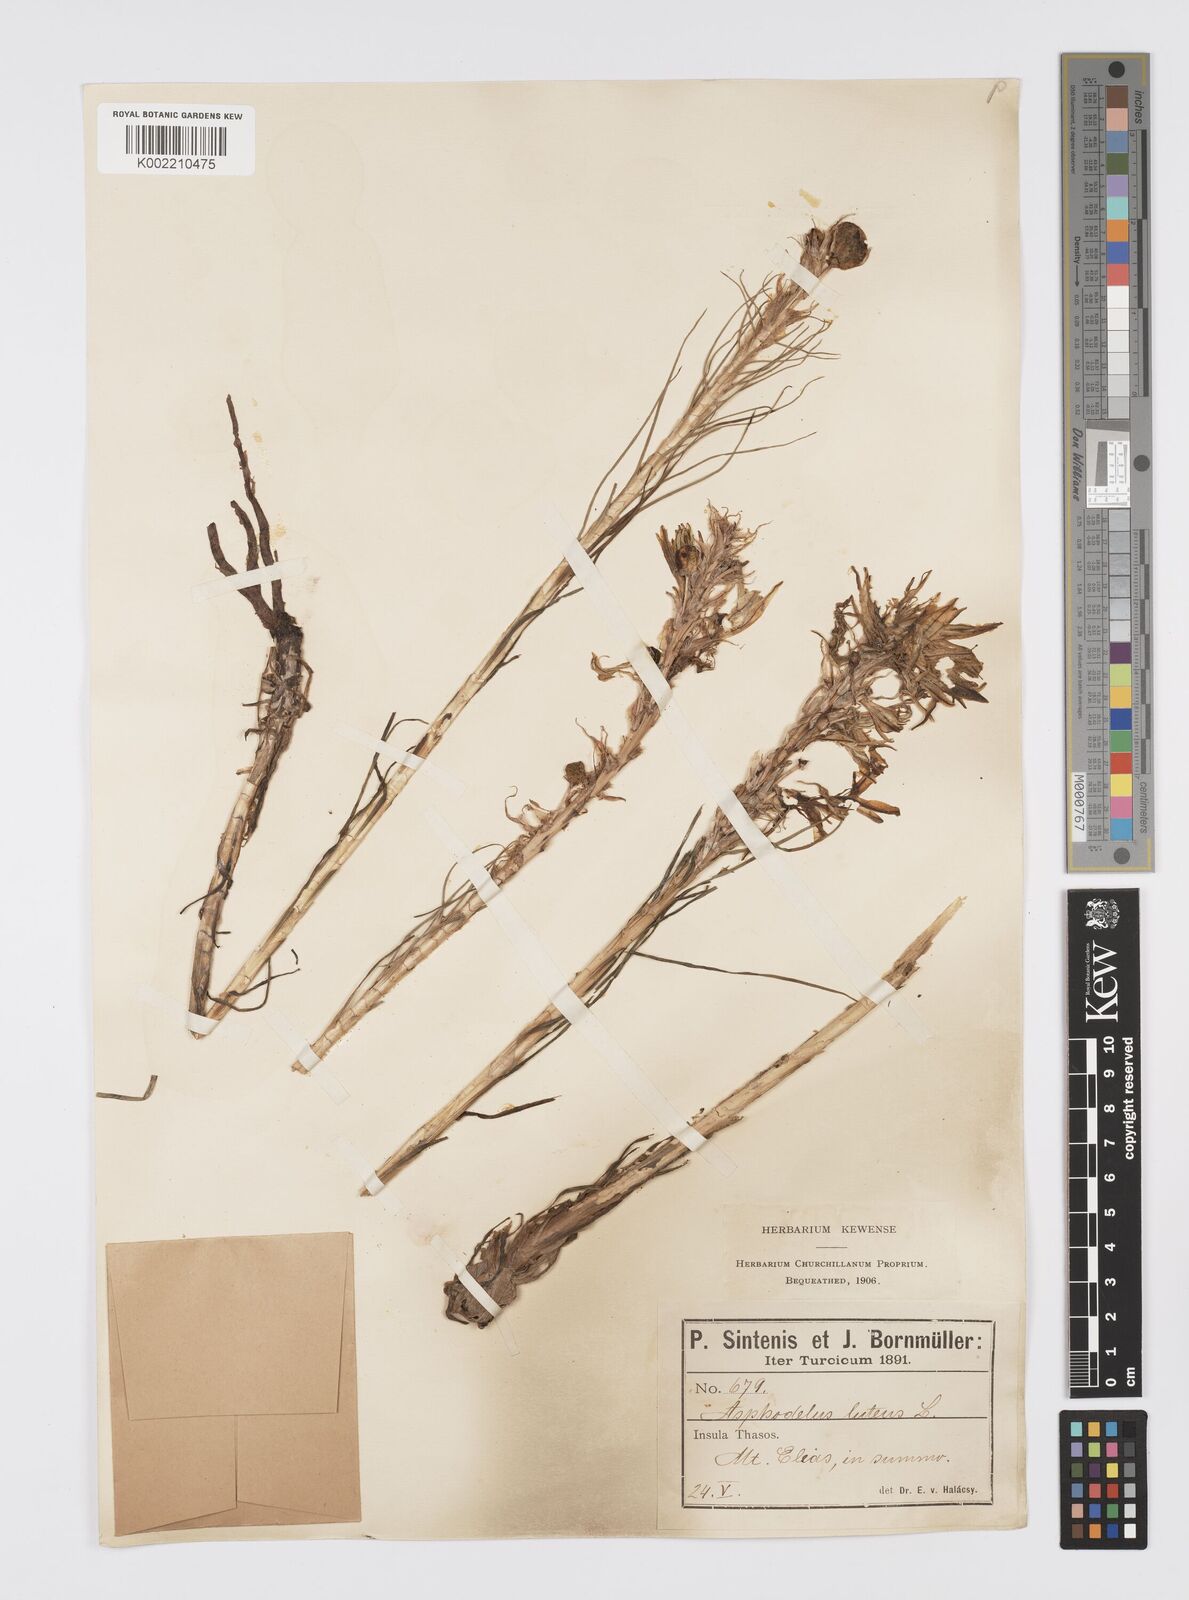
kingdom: Plantae
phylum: Tracheophyta
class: Liliopsida
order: Asparagales
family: Asphodelaceae
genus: Asphodeline
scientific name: Asphodeline lutea
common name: Yellow asphodel
